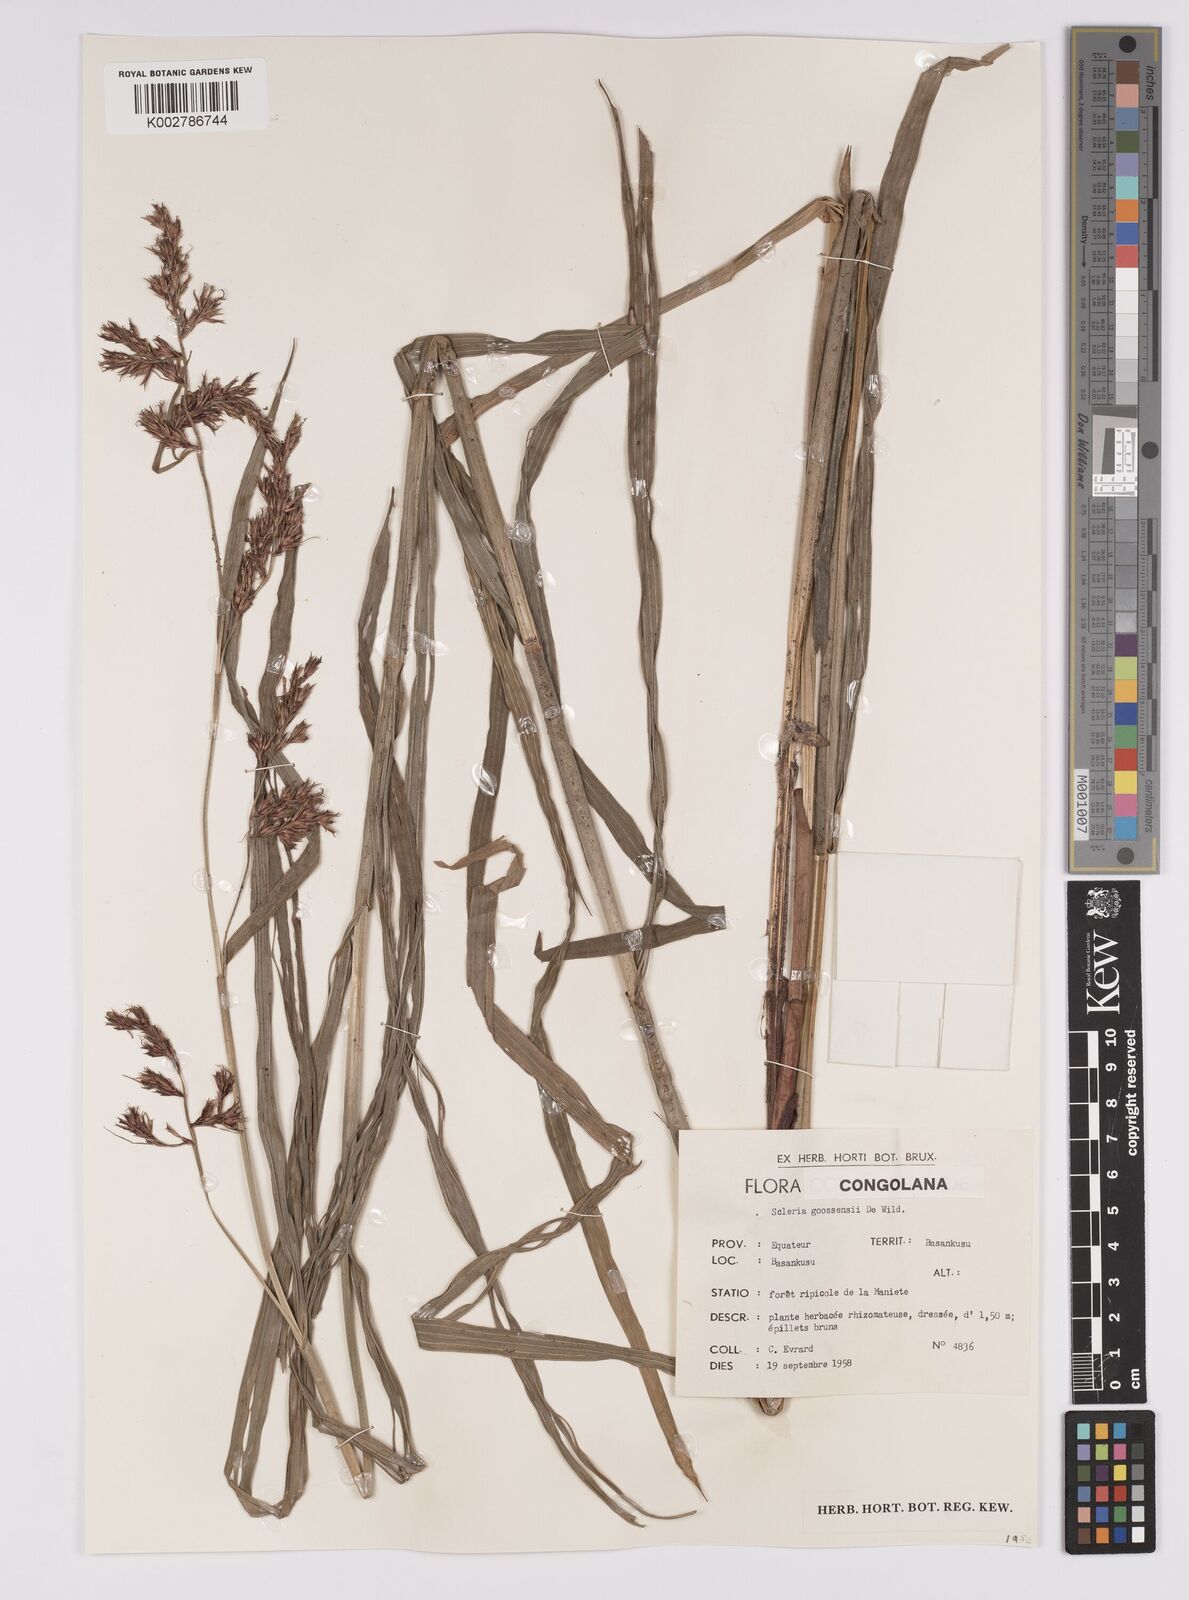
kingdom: Plantae
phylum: Tracheophyta
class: Liliopsida
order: Poales
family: Cyperaceae
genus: Scleria
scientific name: Scleria goossensii
